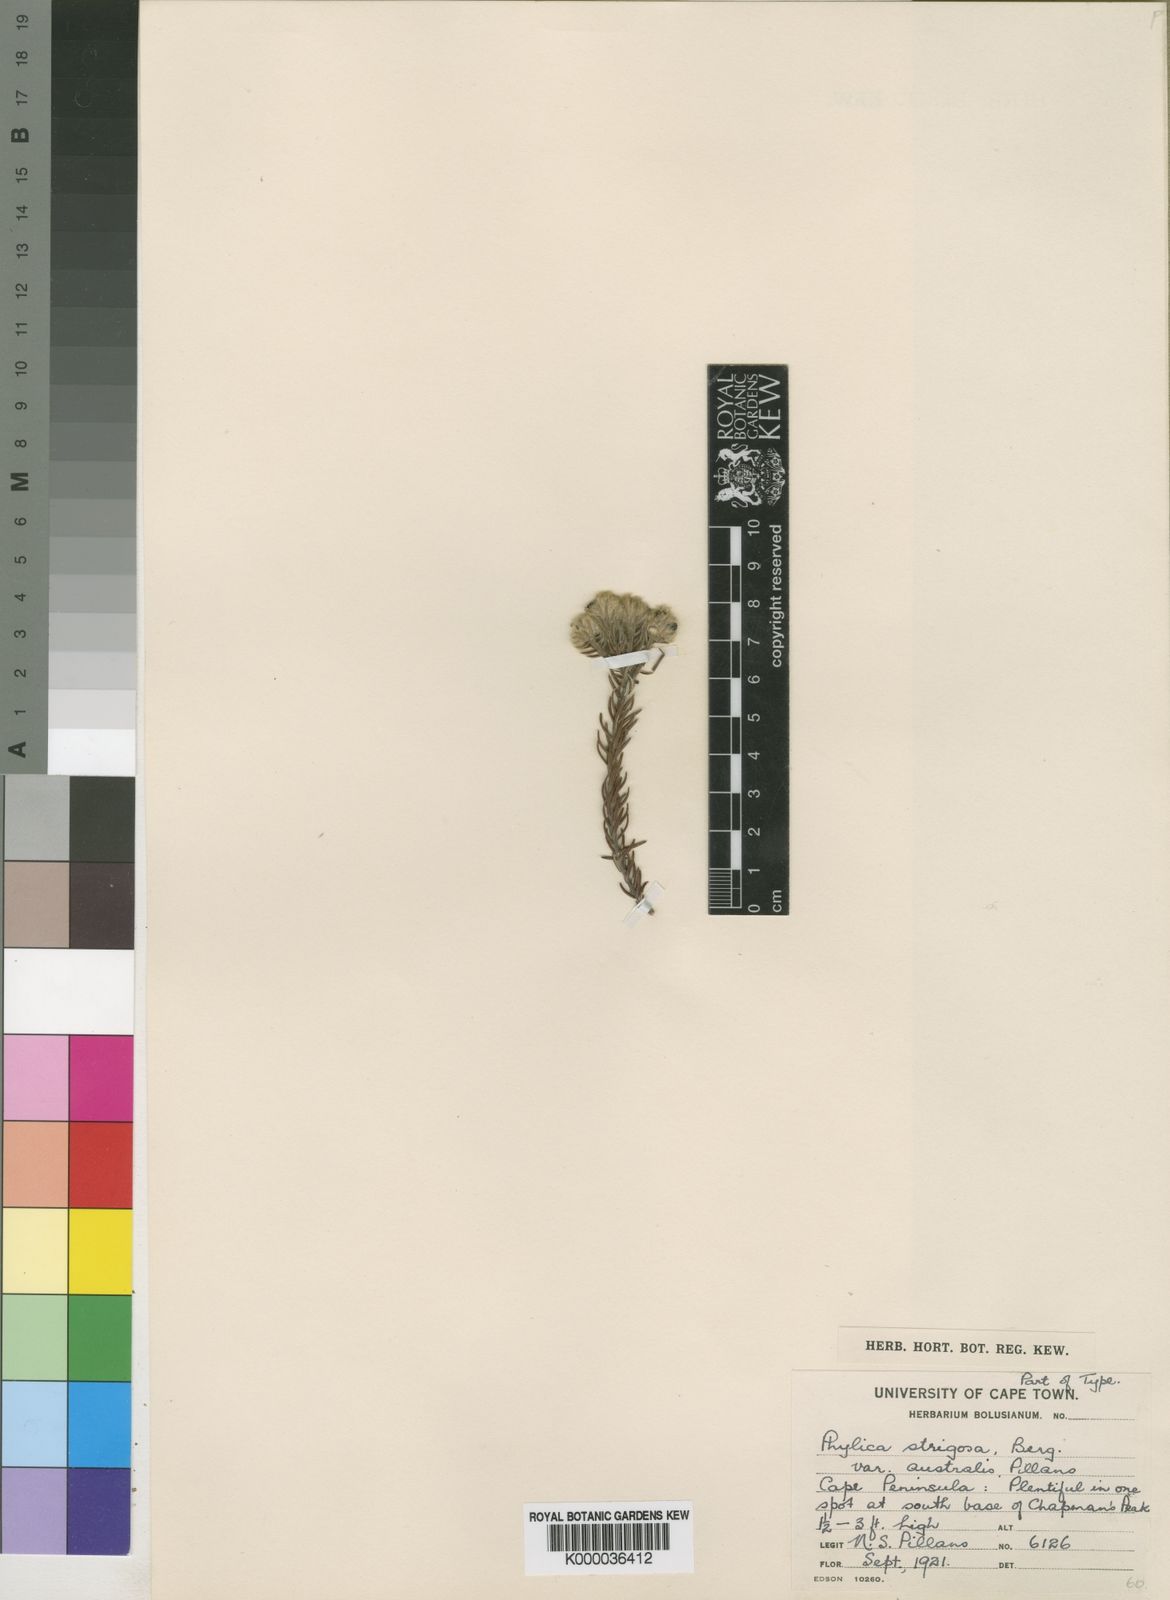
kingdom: Plantae
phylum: Tracheophyta
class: Magnoliopsida
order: Rosales
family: Rhamnaceae
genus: Phylica
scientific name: Phylica strigosa
